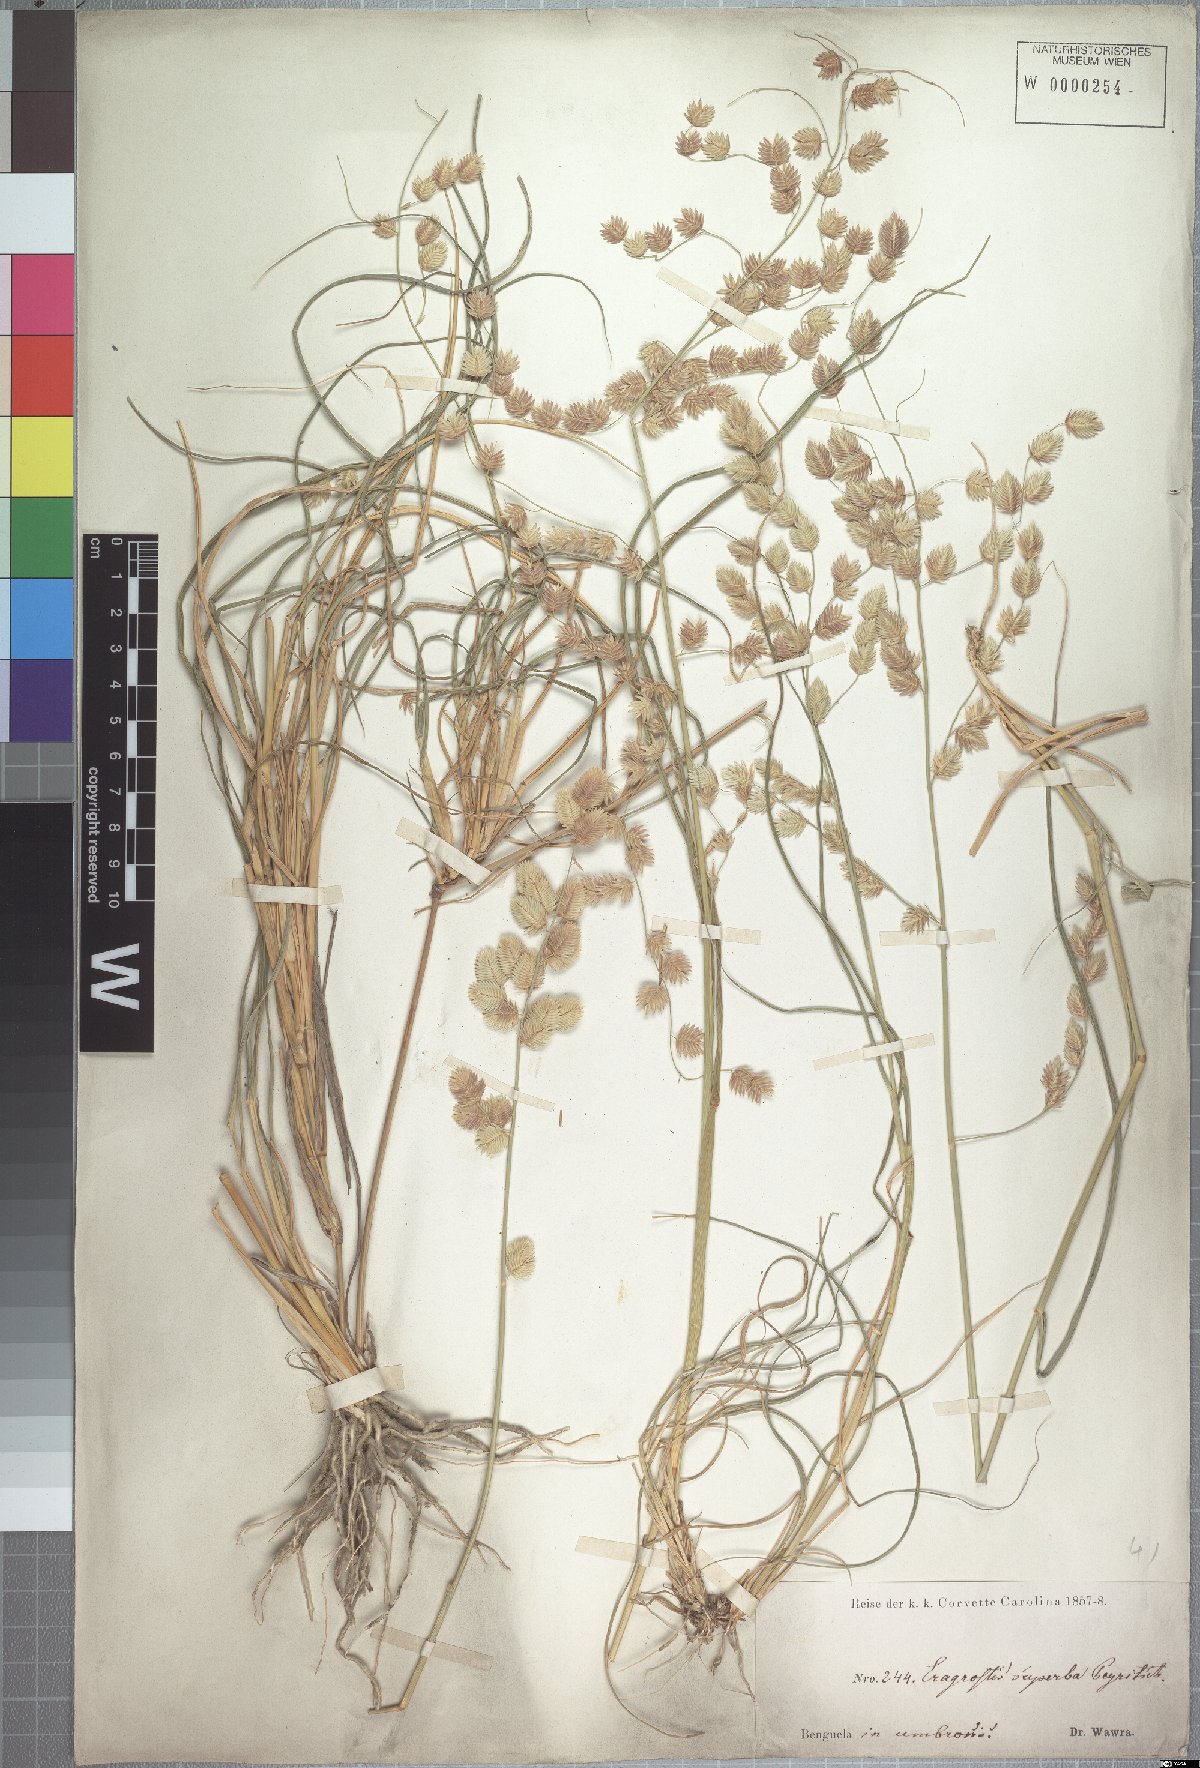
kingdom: Plantae
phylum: Tracheophyta
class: Liliopsida
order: Poales
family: Poaceae
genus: Eragrostis
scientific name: Eragrostis superba
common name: Wilman lovegrass
